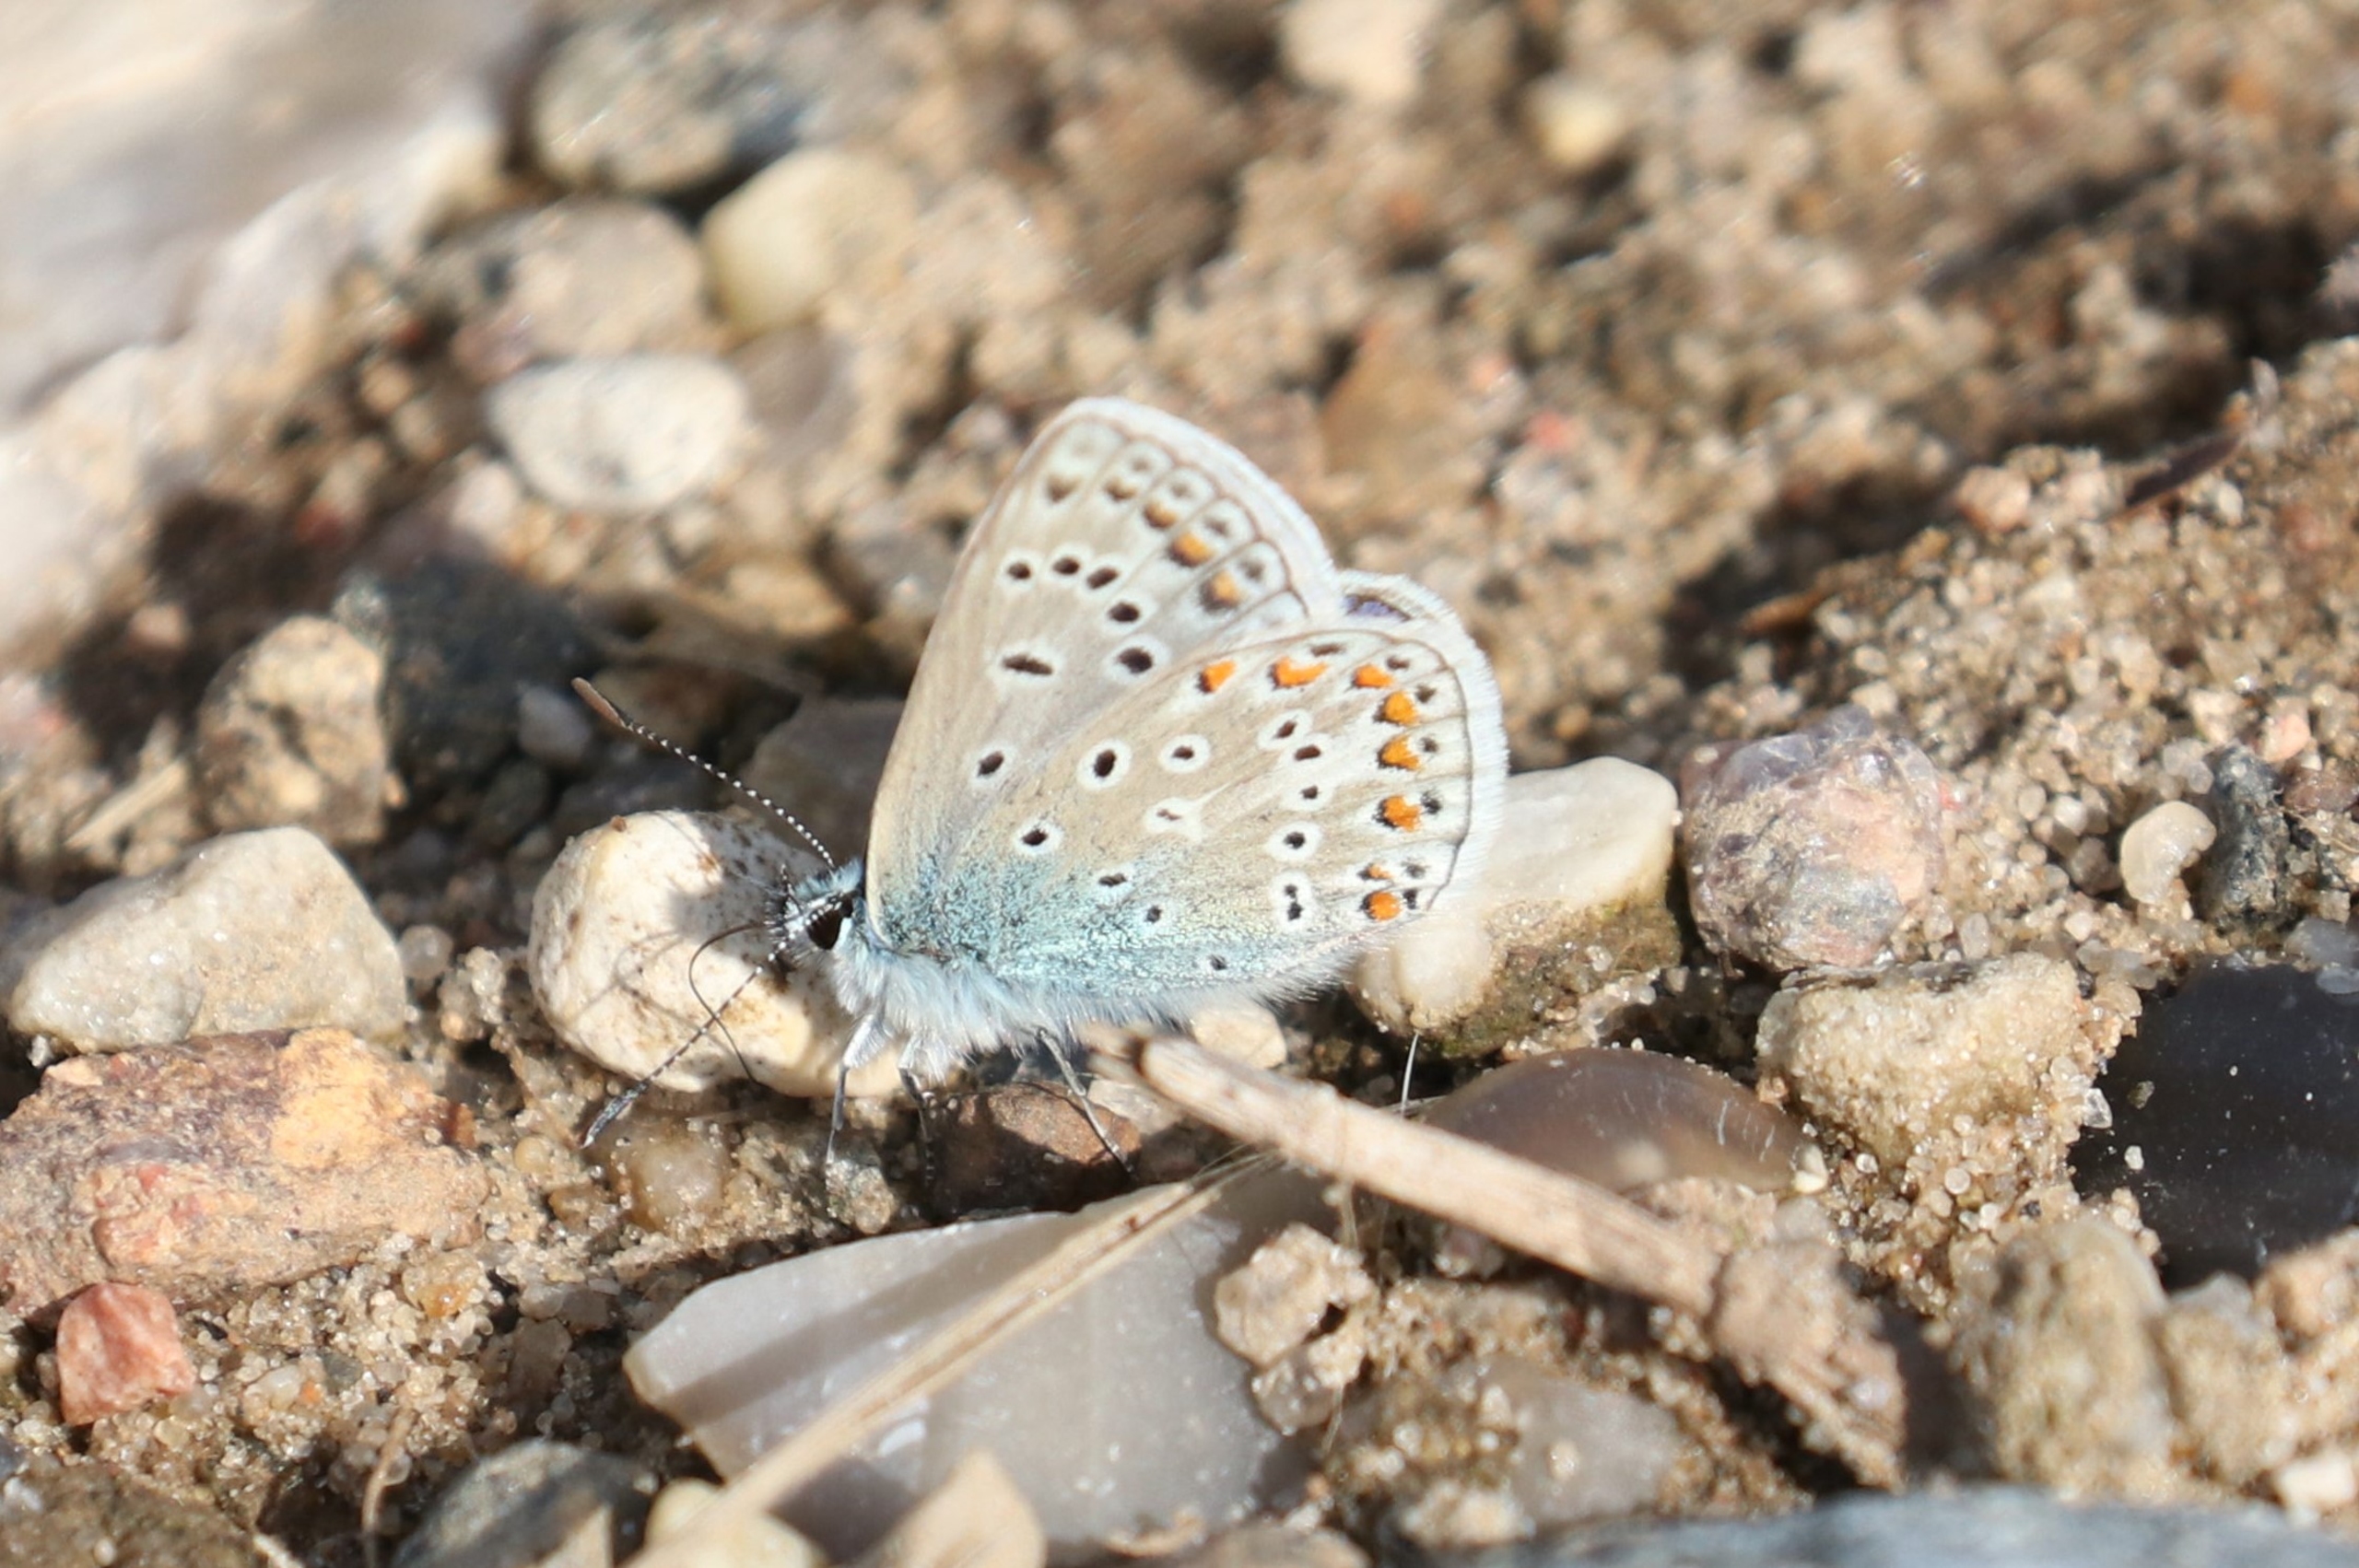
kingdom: Animalia
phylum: Arthropoda
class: Insecta
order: Lepidoptera
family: Lycaenidae
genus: Polyommatus
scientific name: Polyommatus icarus
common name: Almindelig blåfugl
